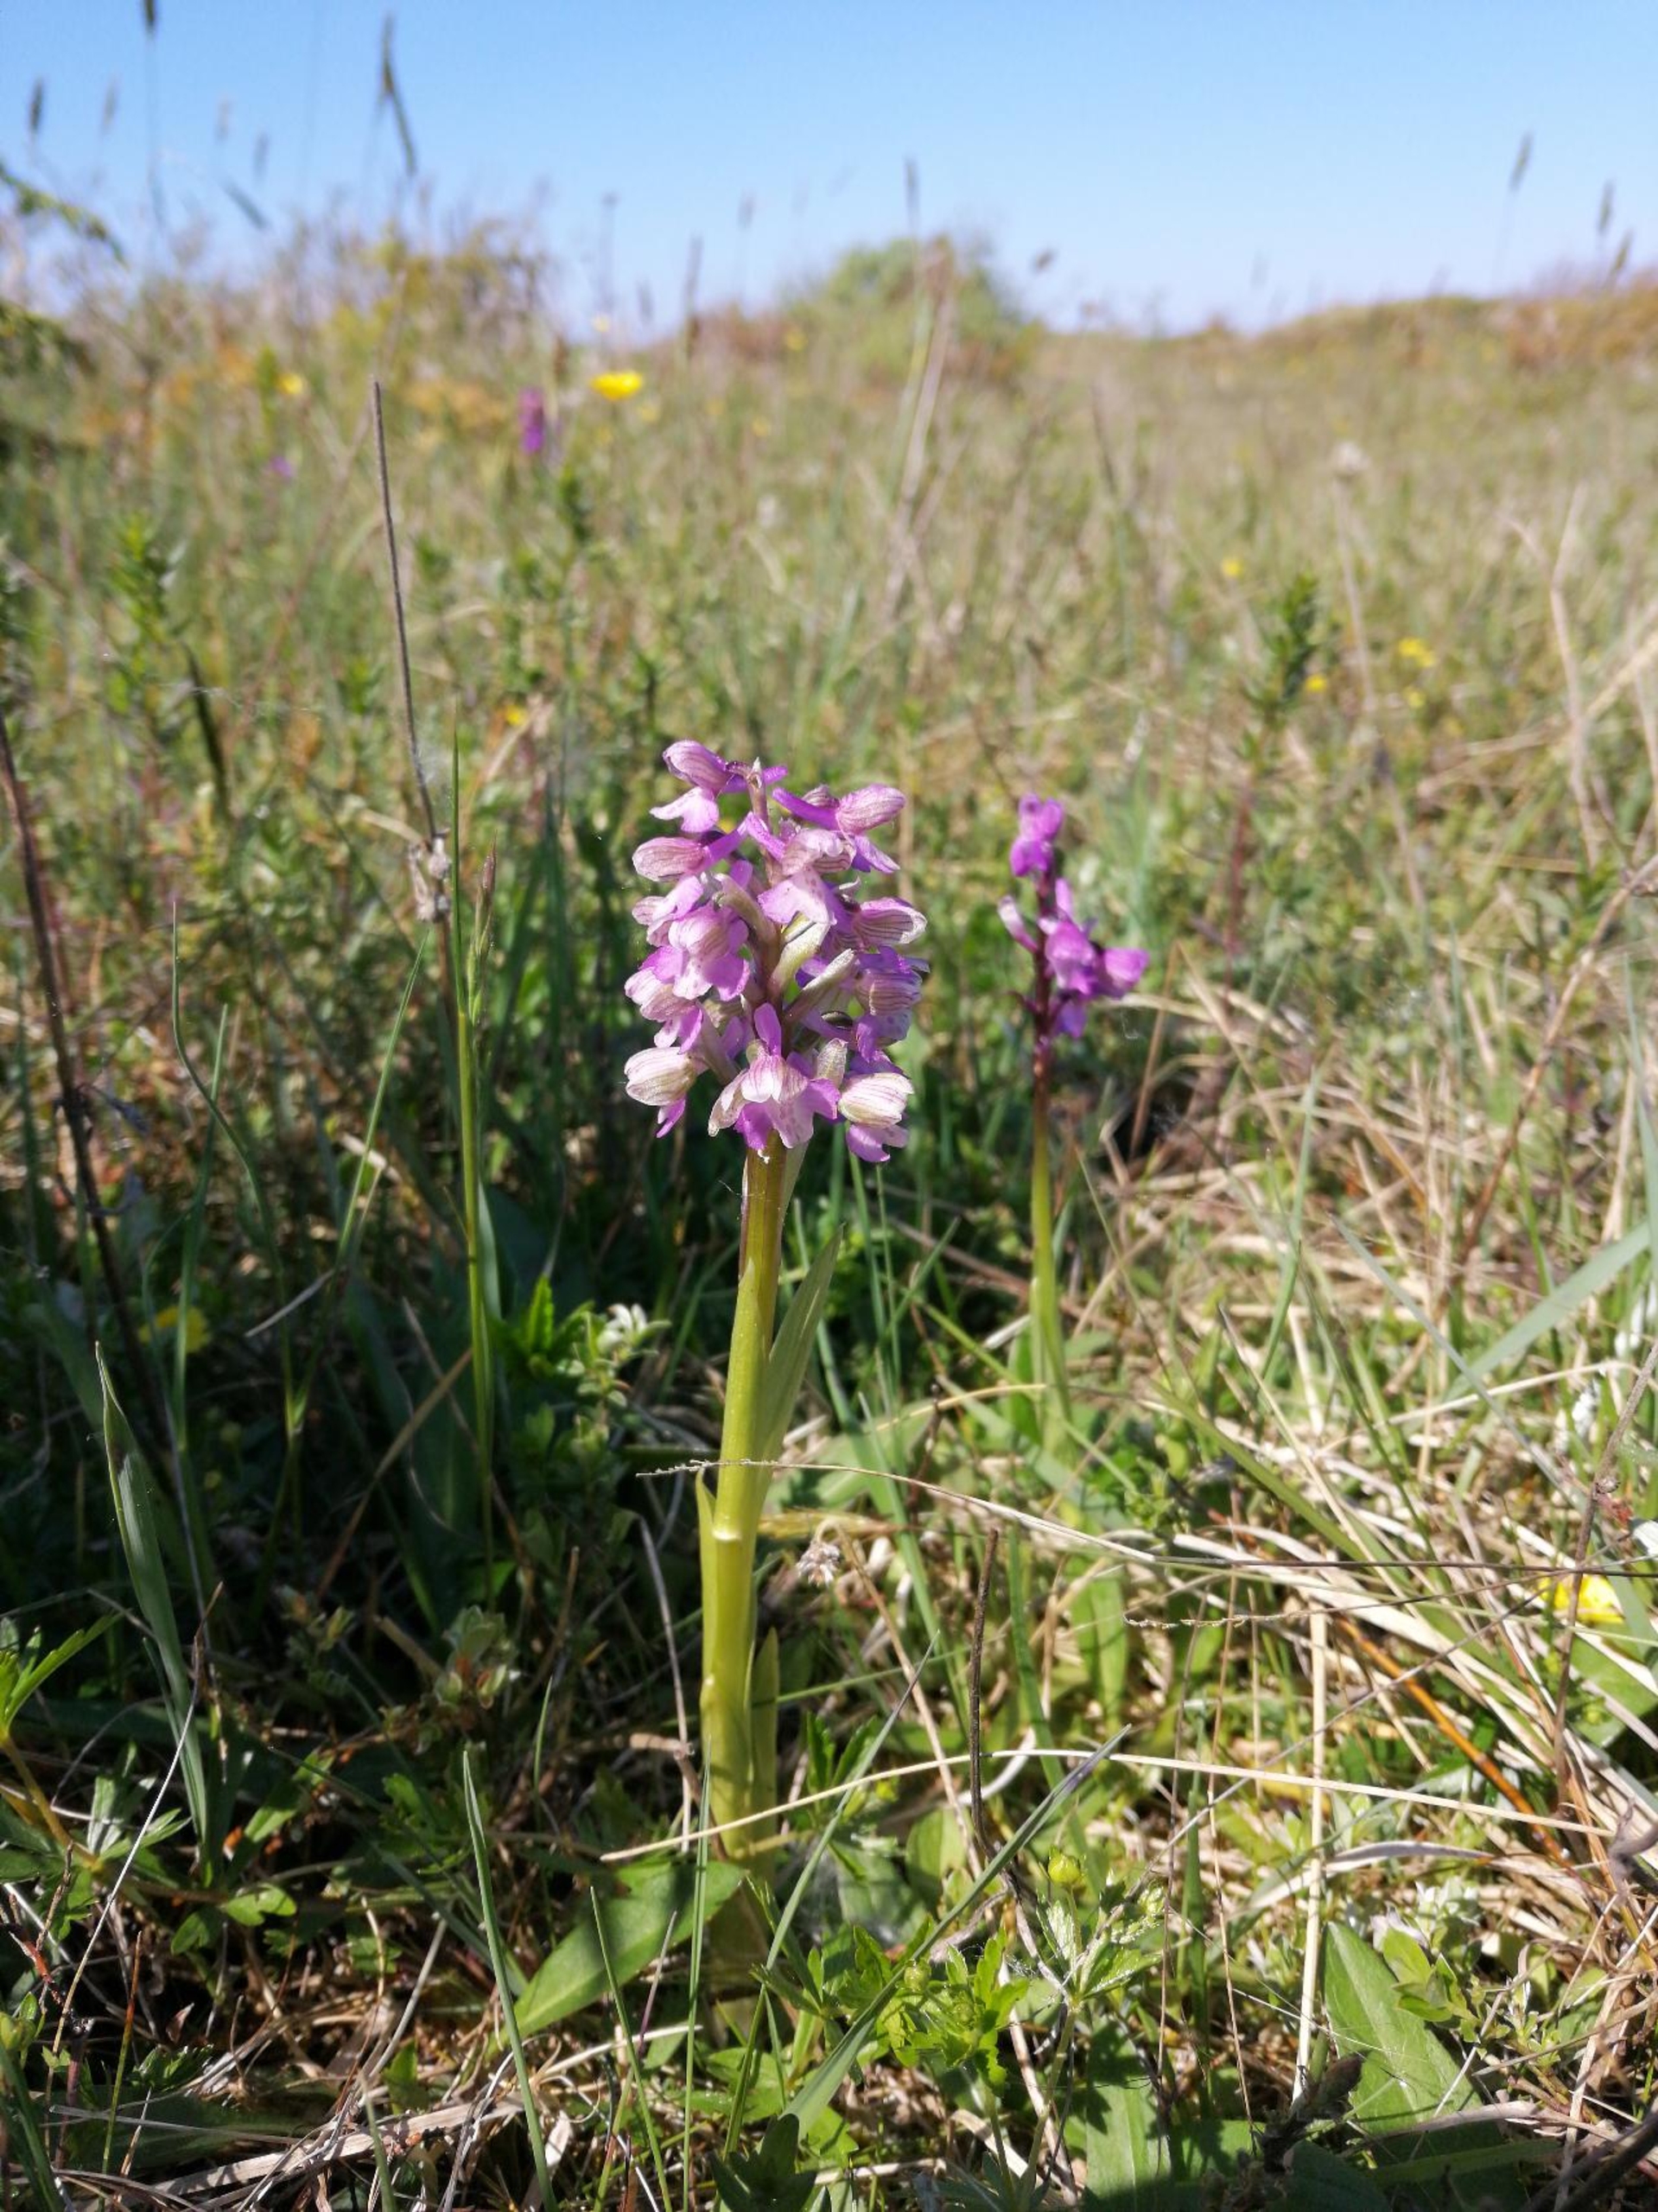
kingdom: Plantae
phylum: Tracheophyta
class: Liliopsida
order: Asparagales
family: Orchidaceae
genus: Anacamptis
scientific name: Anacamptis morio
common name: Salepgøgeurt
